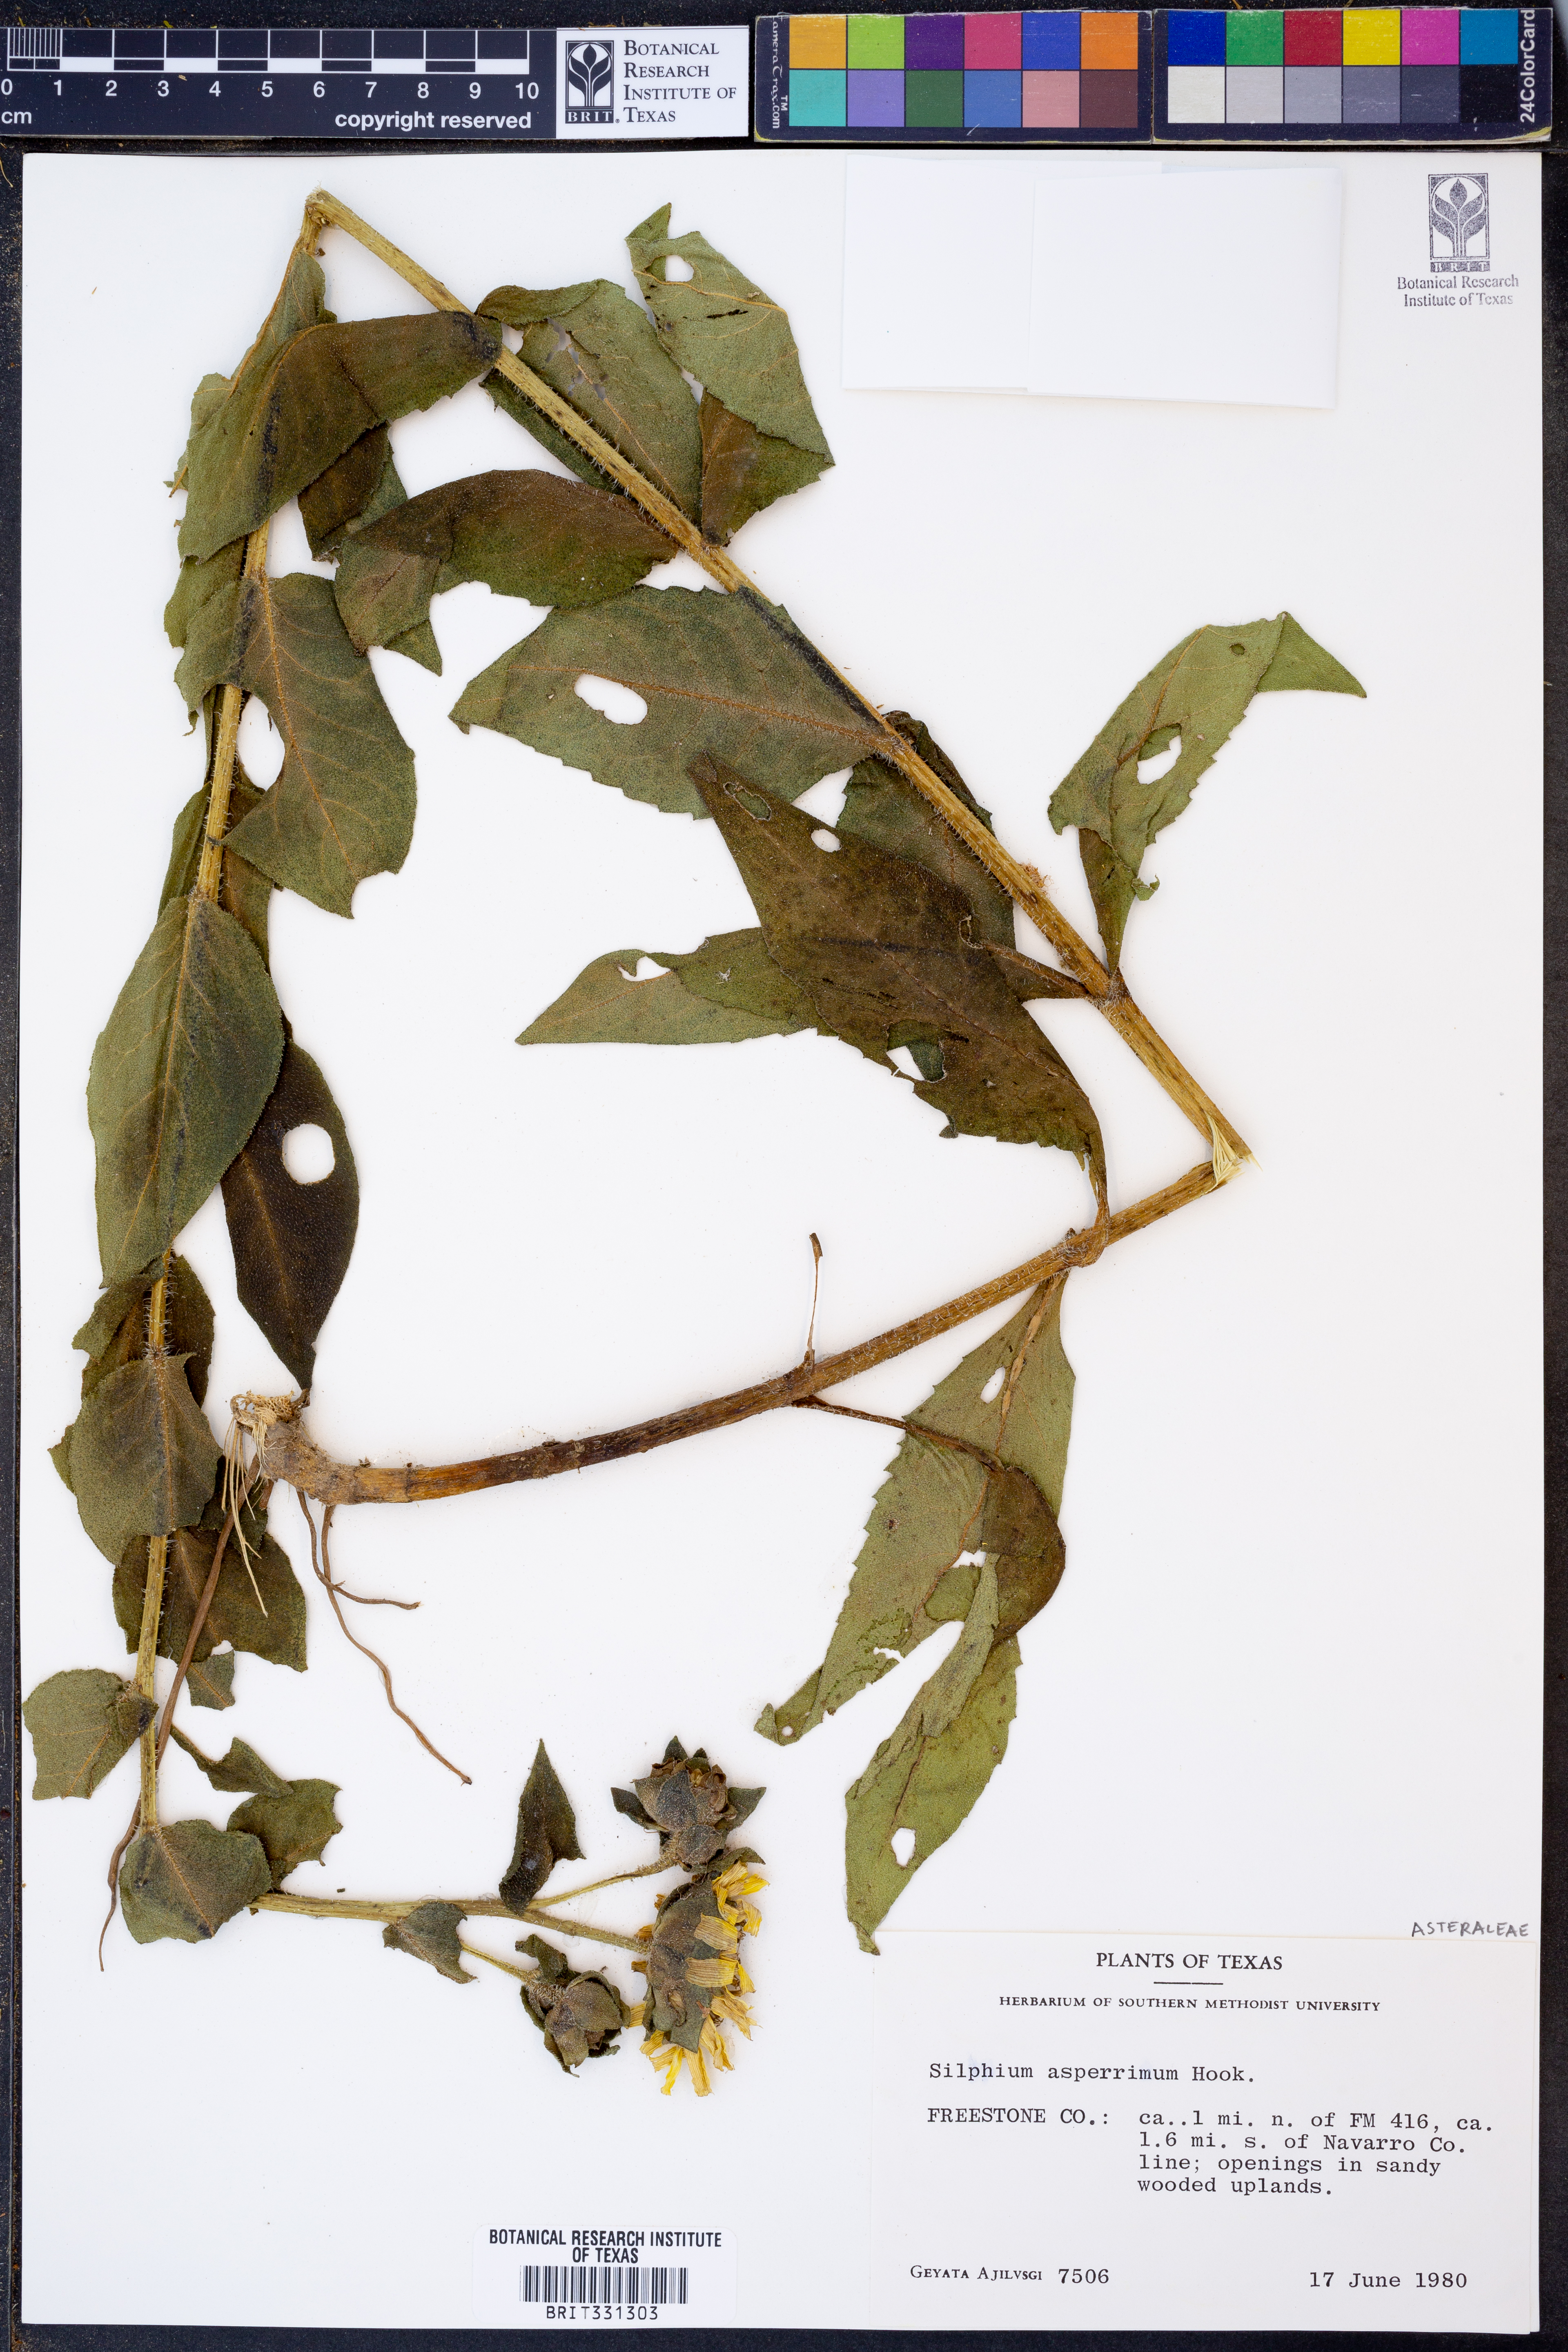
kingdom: Plantae
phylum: Tracheophyta
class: Magnoliopsida
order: Asterales
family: Asteraceae
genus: Silphium
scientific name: Silphium asperrimum
